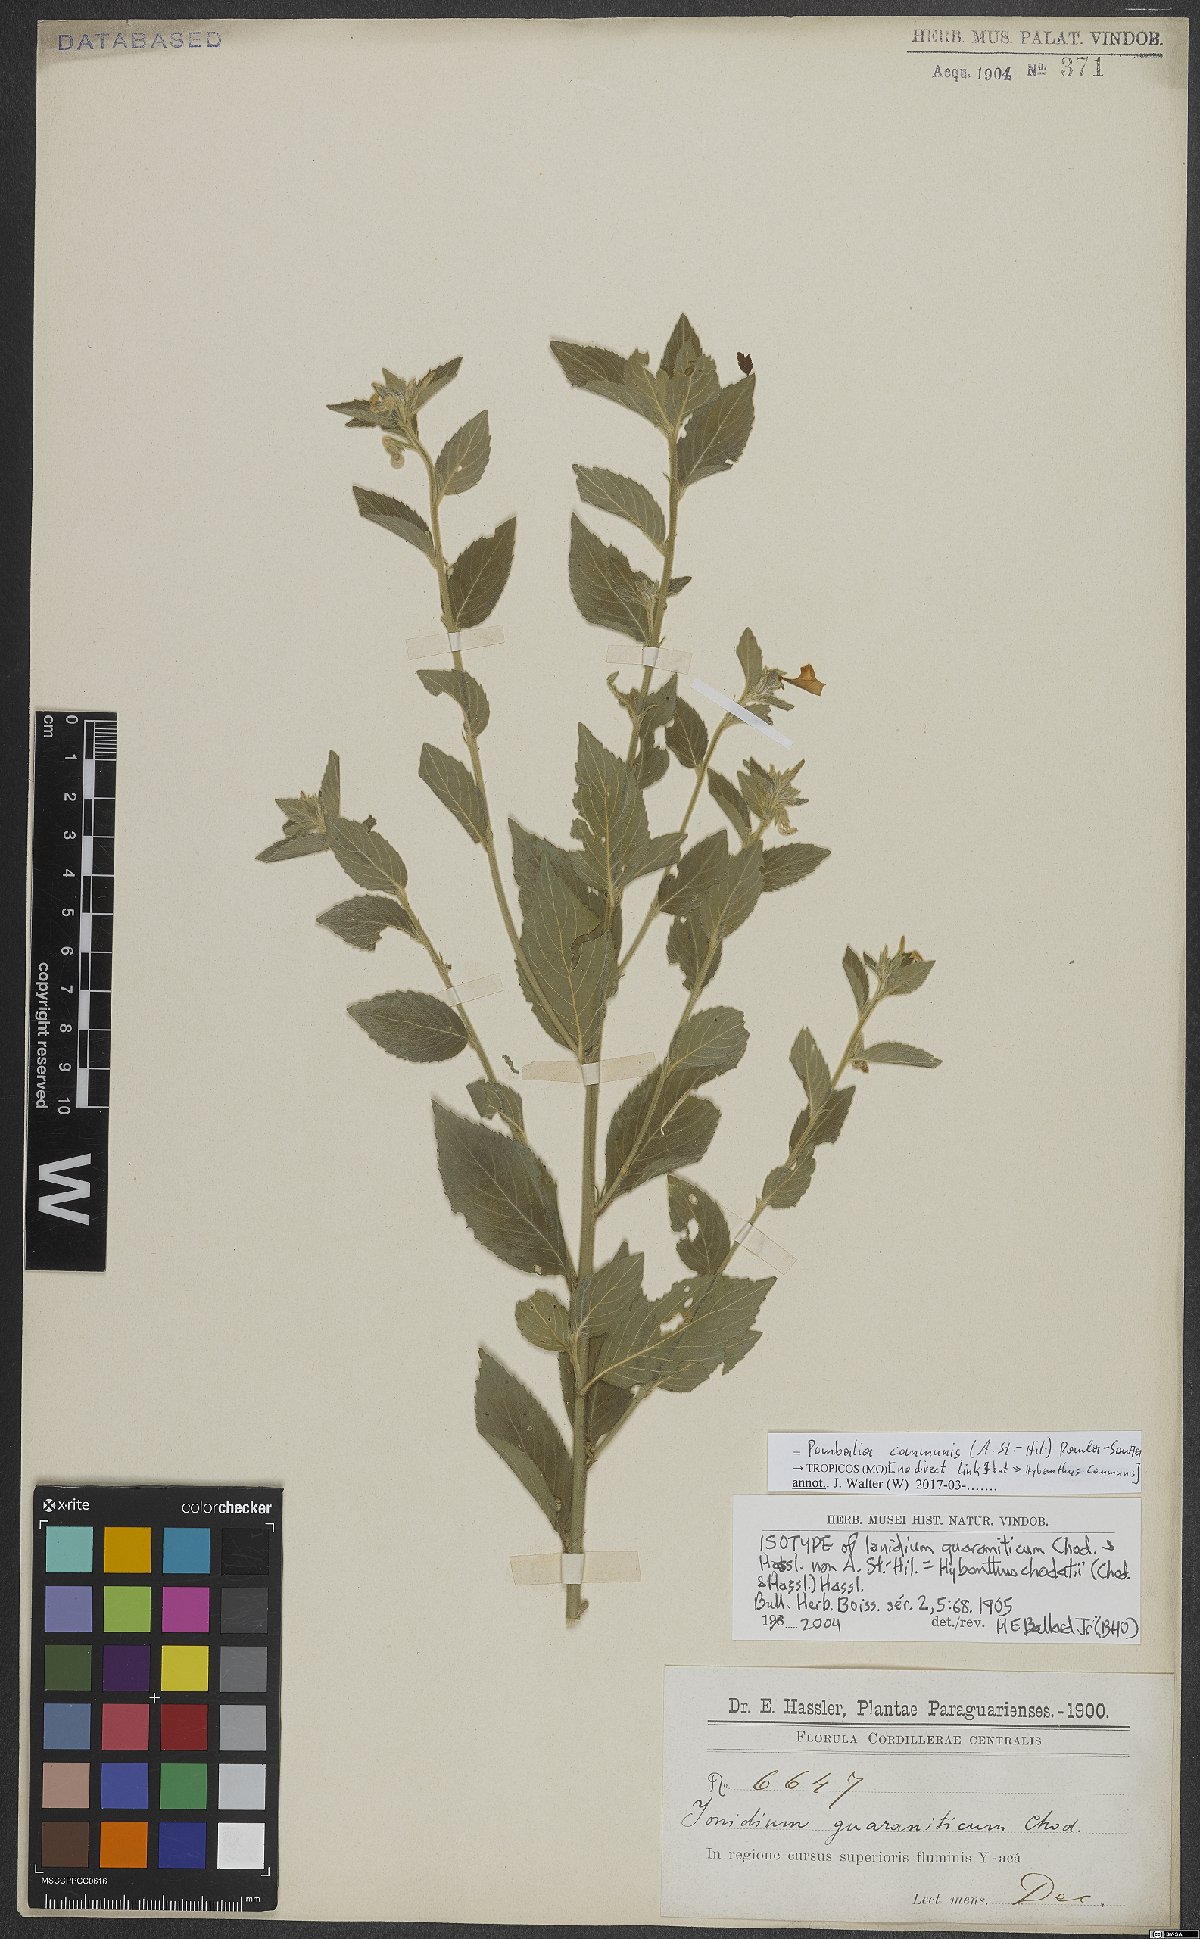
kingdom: Plantae
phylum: Tracheophyta
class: Magnoliopsida
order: Malpighiales
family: Violaceae
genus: Pombalia
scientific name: Pombalia communis
